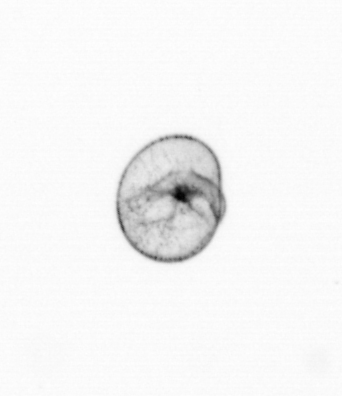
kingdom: Chromista
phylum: Myzozoa
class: Dinophyceae
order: Noctilucales
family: Noctilucaceae
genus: Noctiluca
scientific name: Noctiluca scintillans
